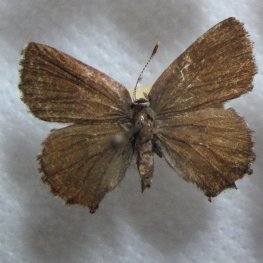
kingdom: Animalia
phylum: Arthropoda
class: Insecta
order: Lepidoptera
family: Lycaenidae
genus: Incisalia
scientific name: Incisalia lanoraieensis
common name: Bog Elfin
